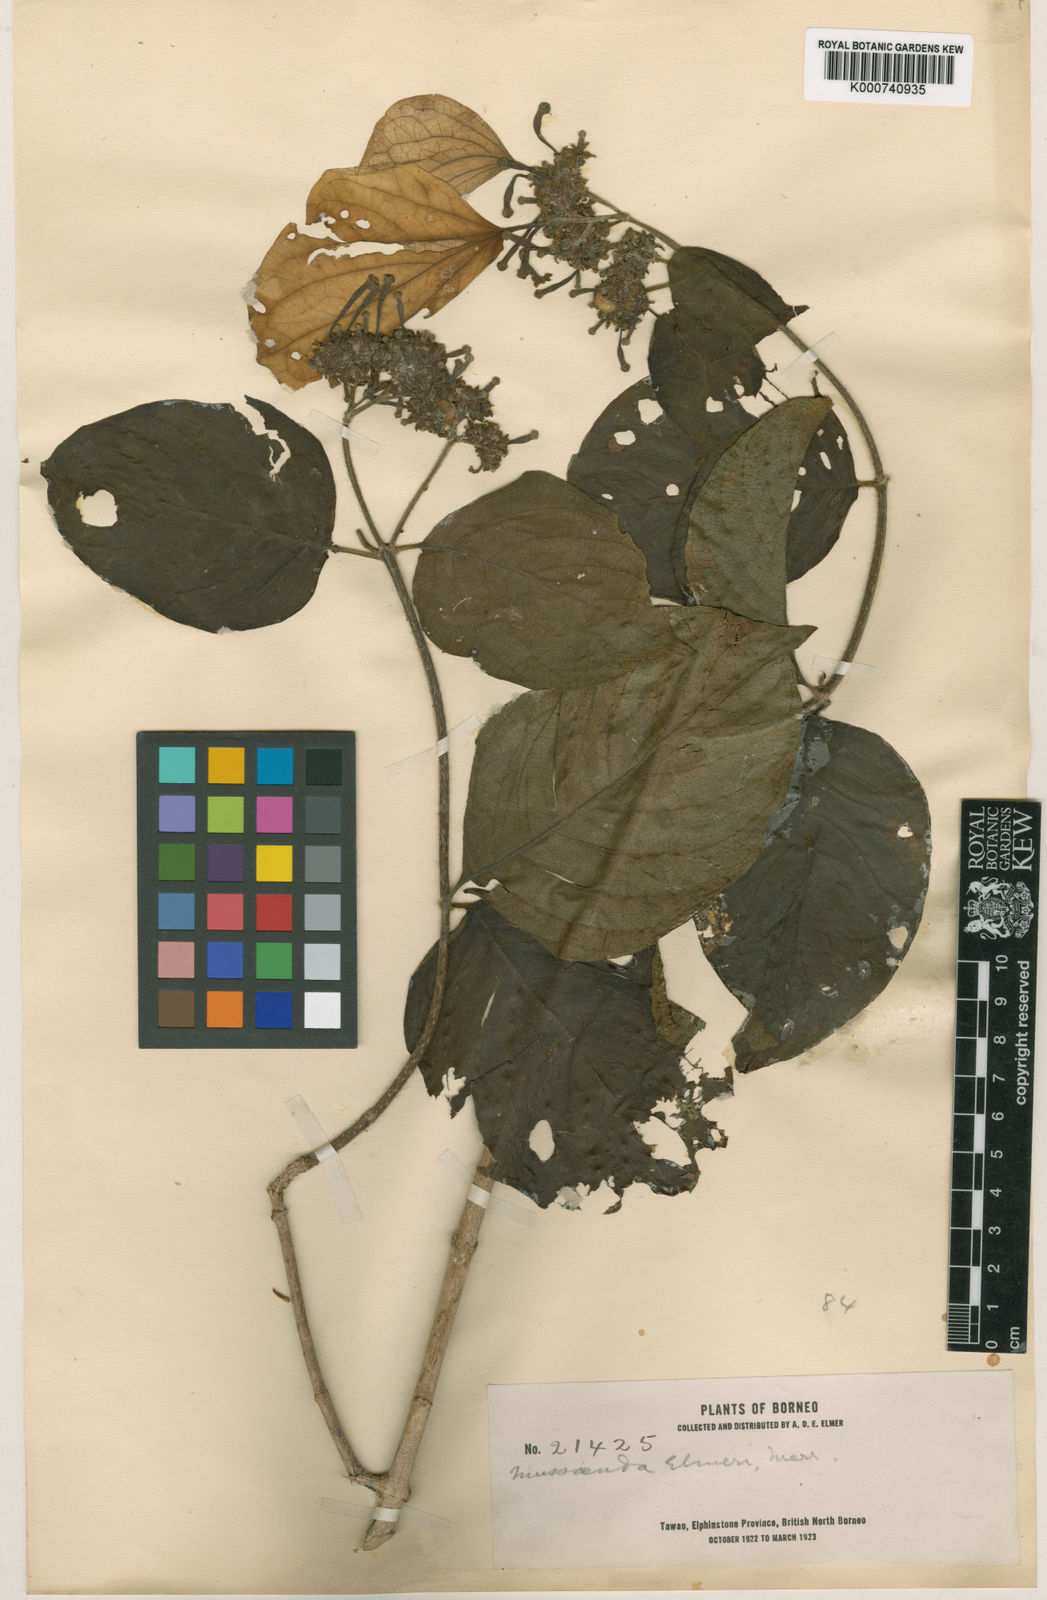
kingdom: Plantae
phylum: Tracheophyta
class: Magnoliopsida
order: Gentianales
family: Rubiaceae
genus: Mussaenda
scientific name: Mussaenda elmeri
